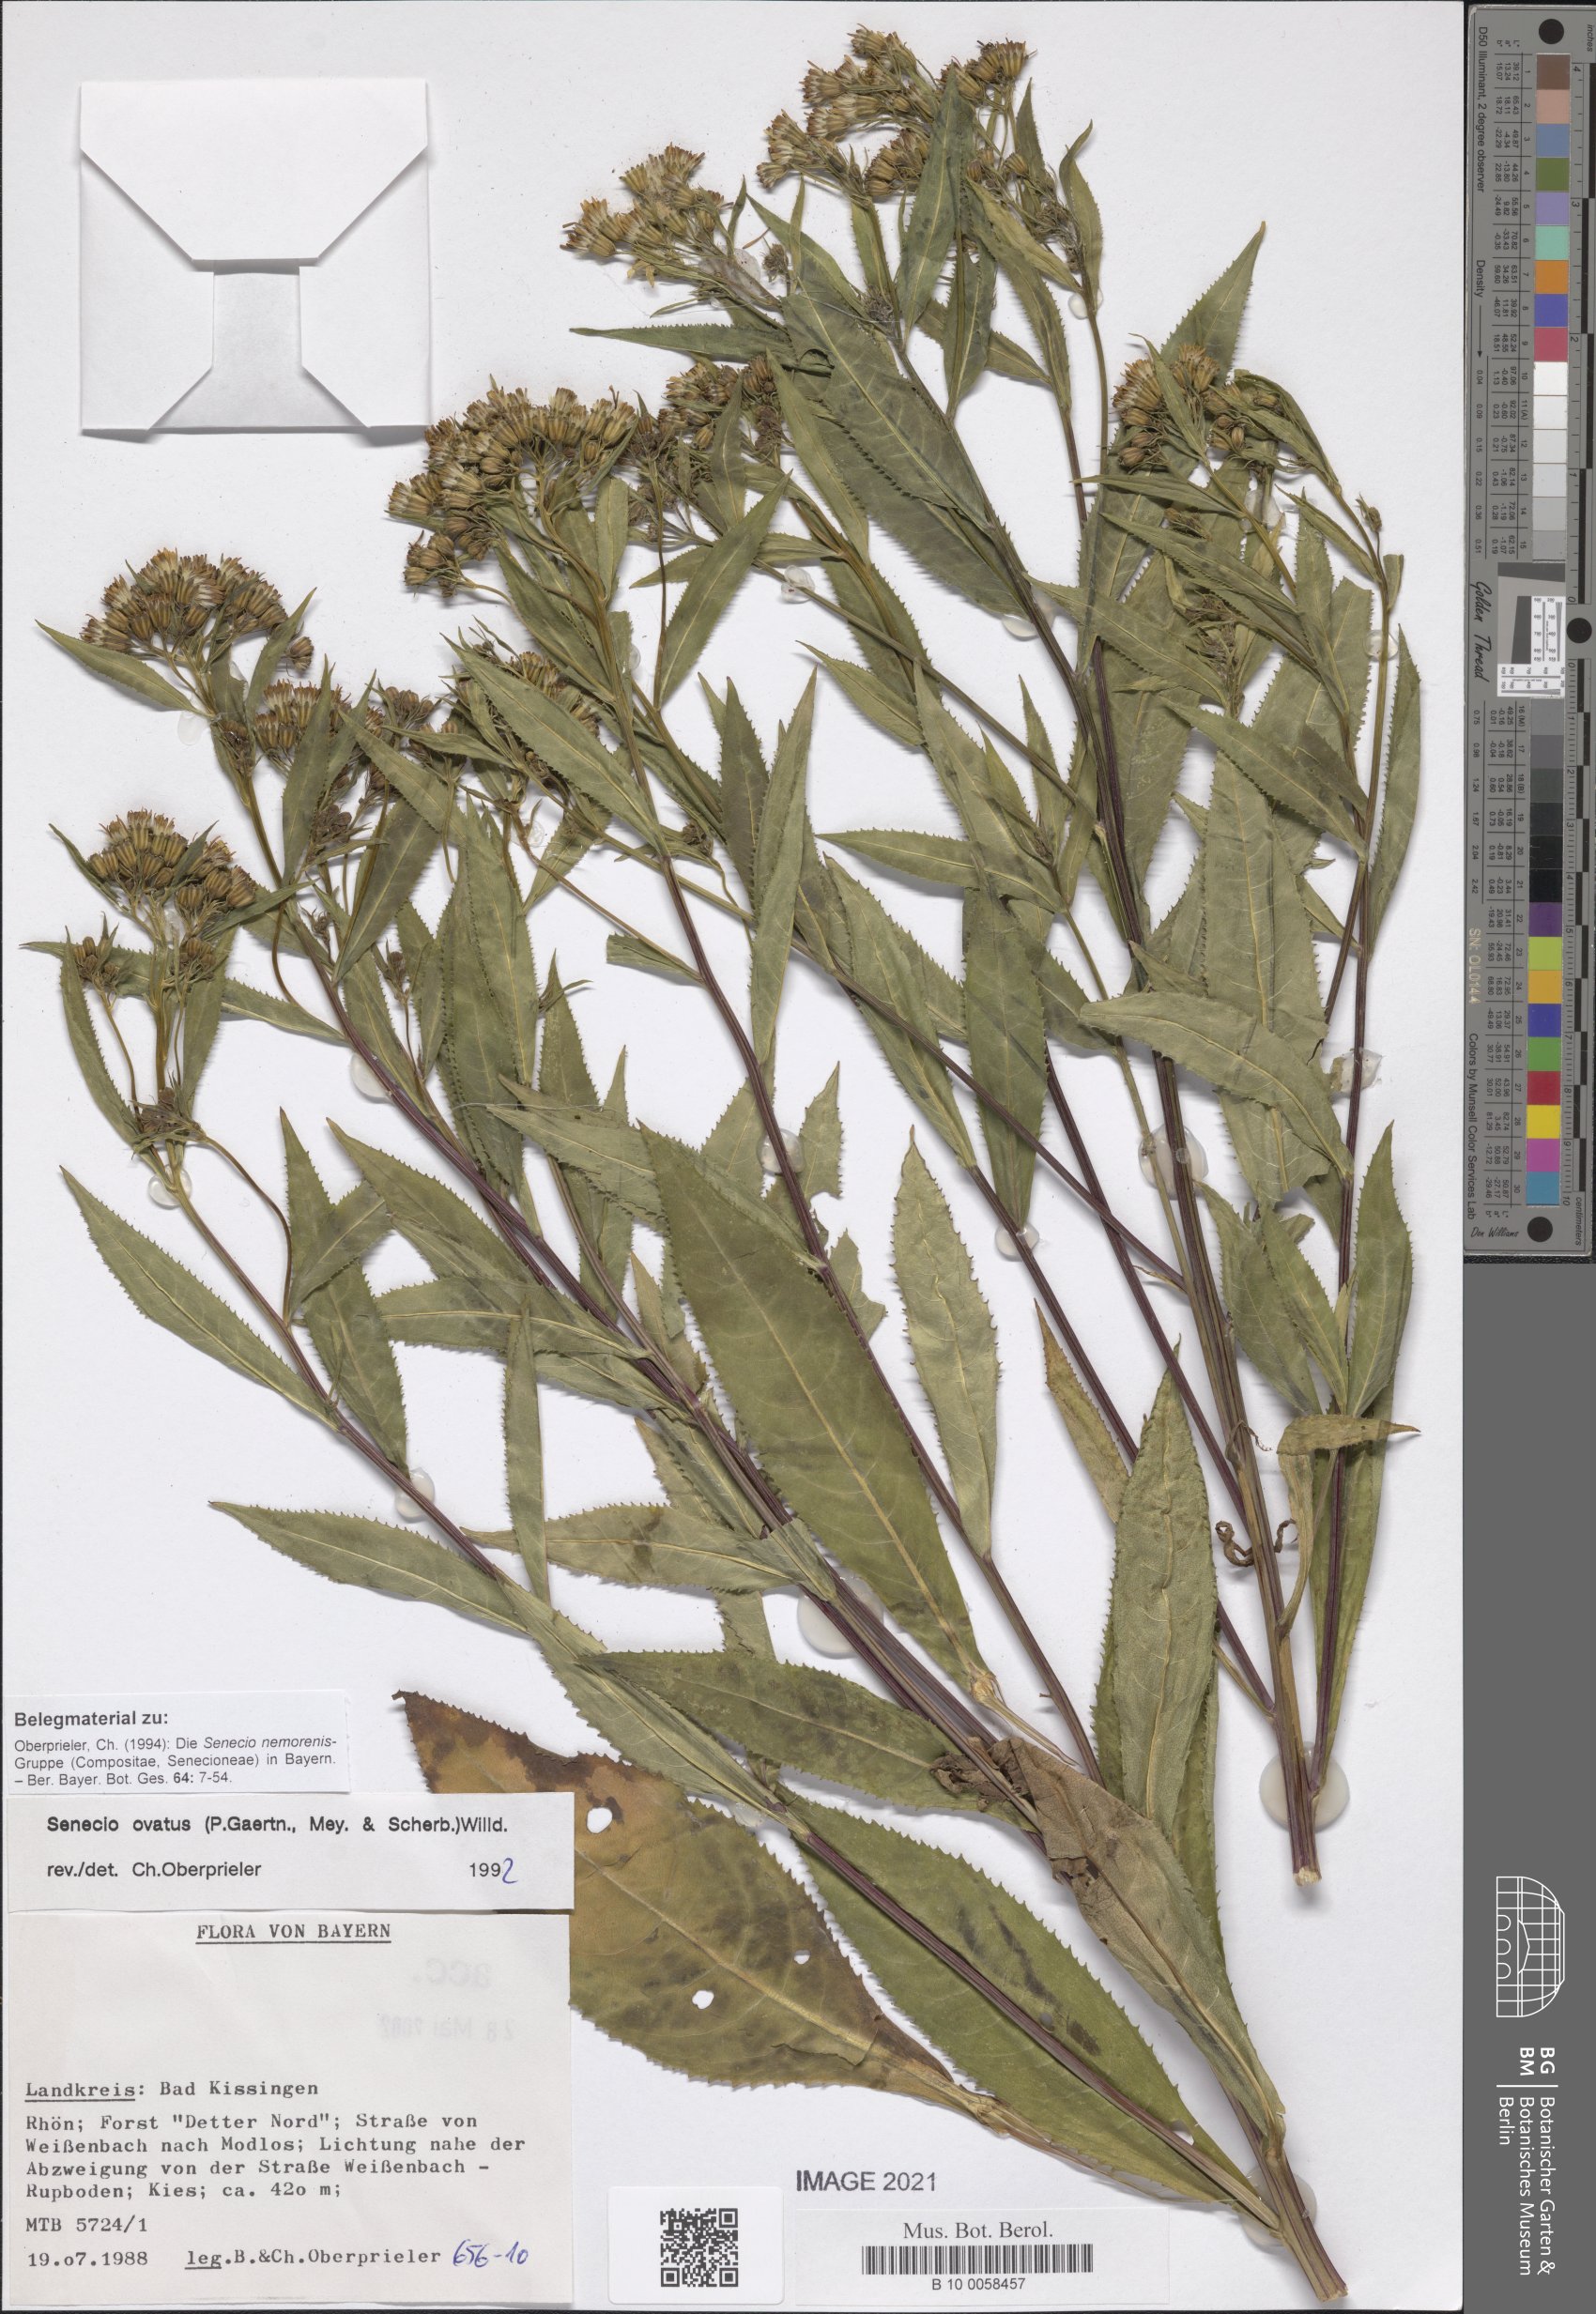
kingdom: Plantae
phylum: Tracheophyta
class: Magnoliopsida
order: Asterales
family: Asteraceae
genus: Senecio
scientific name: Senecio ovatus
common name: Wood ragwort
